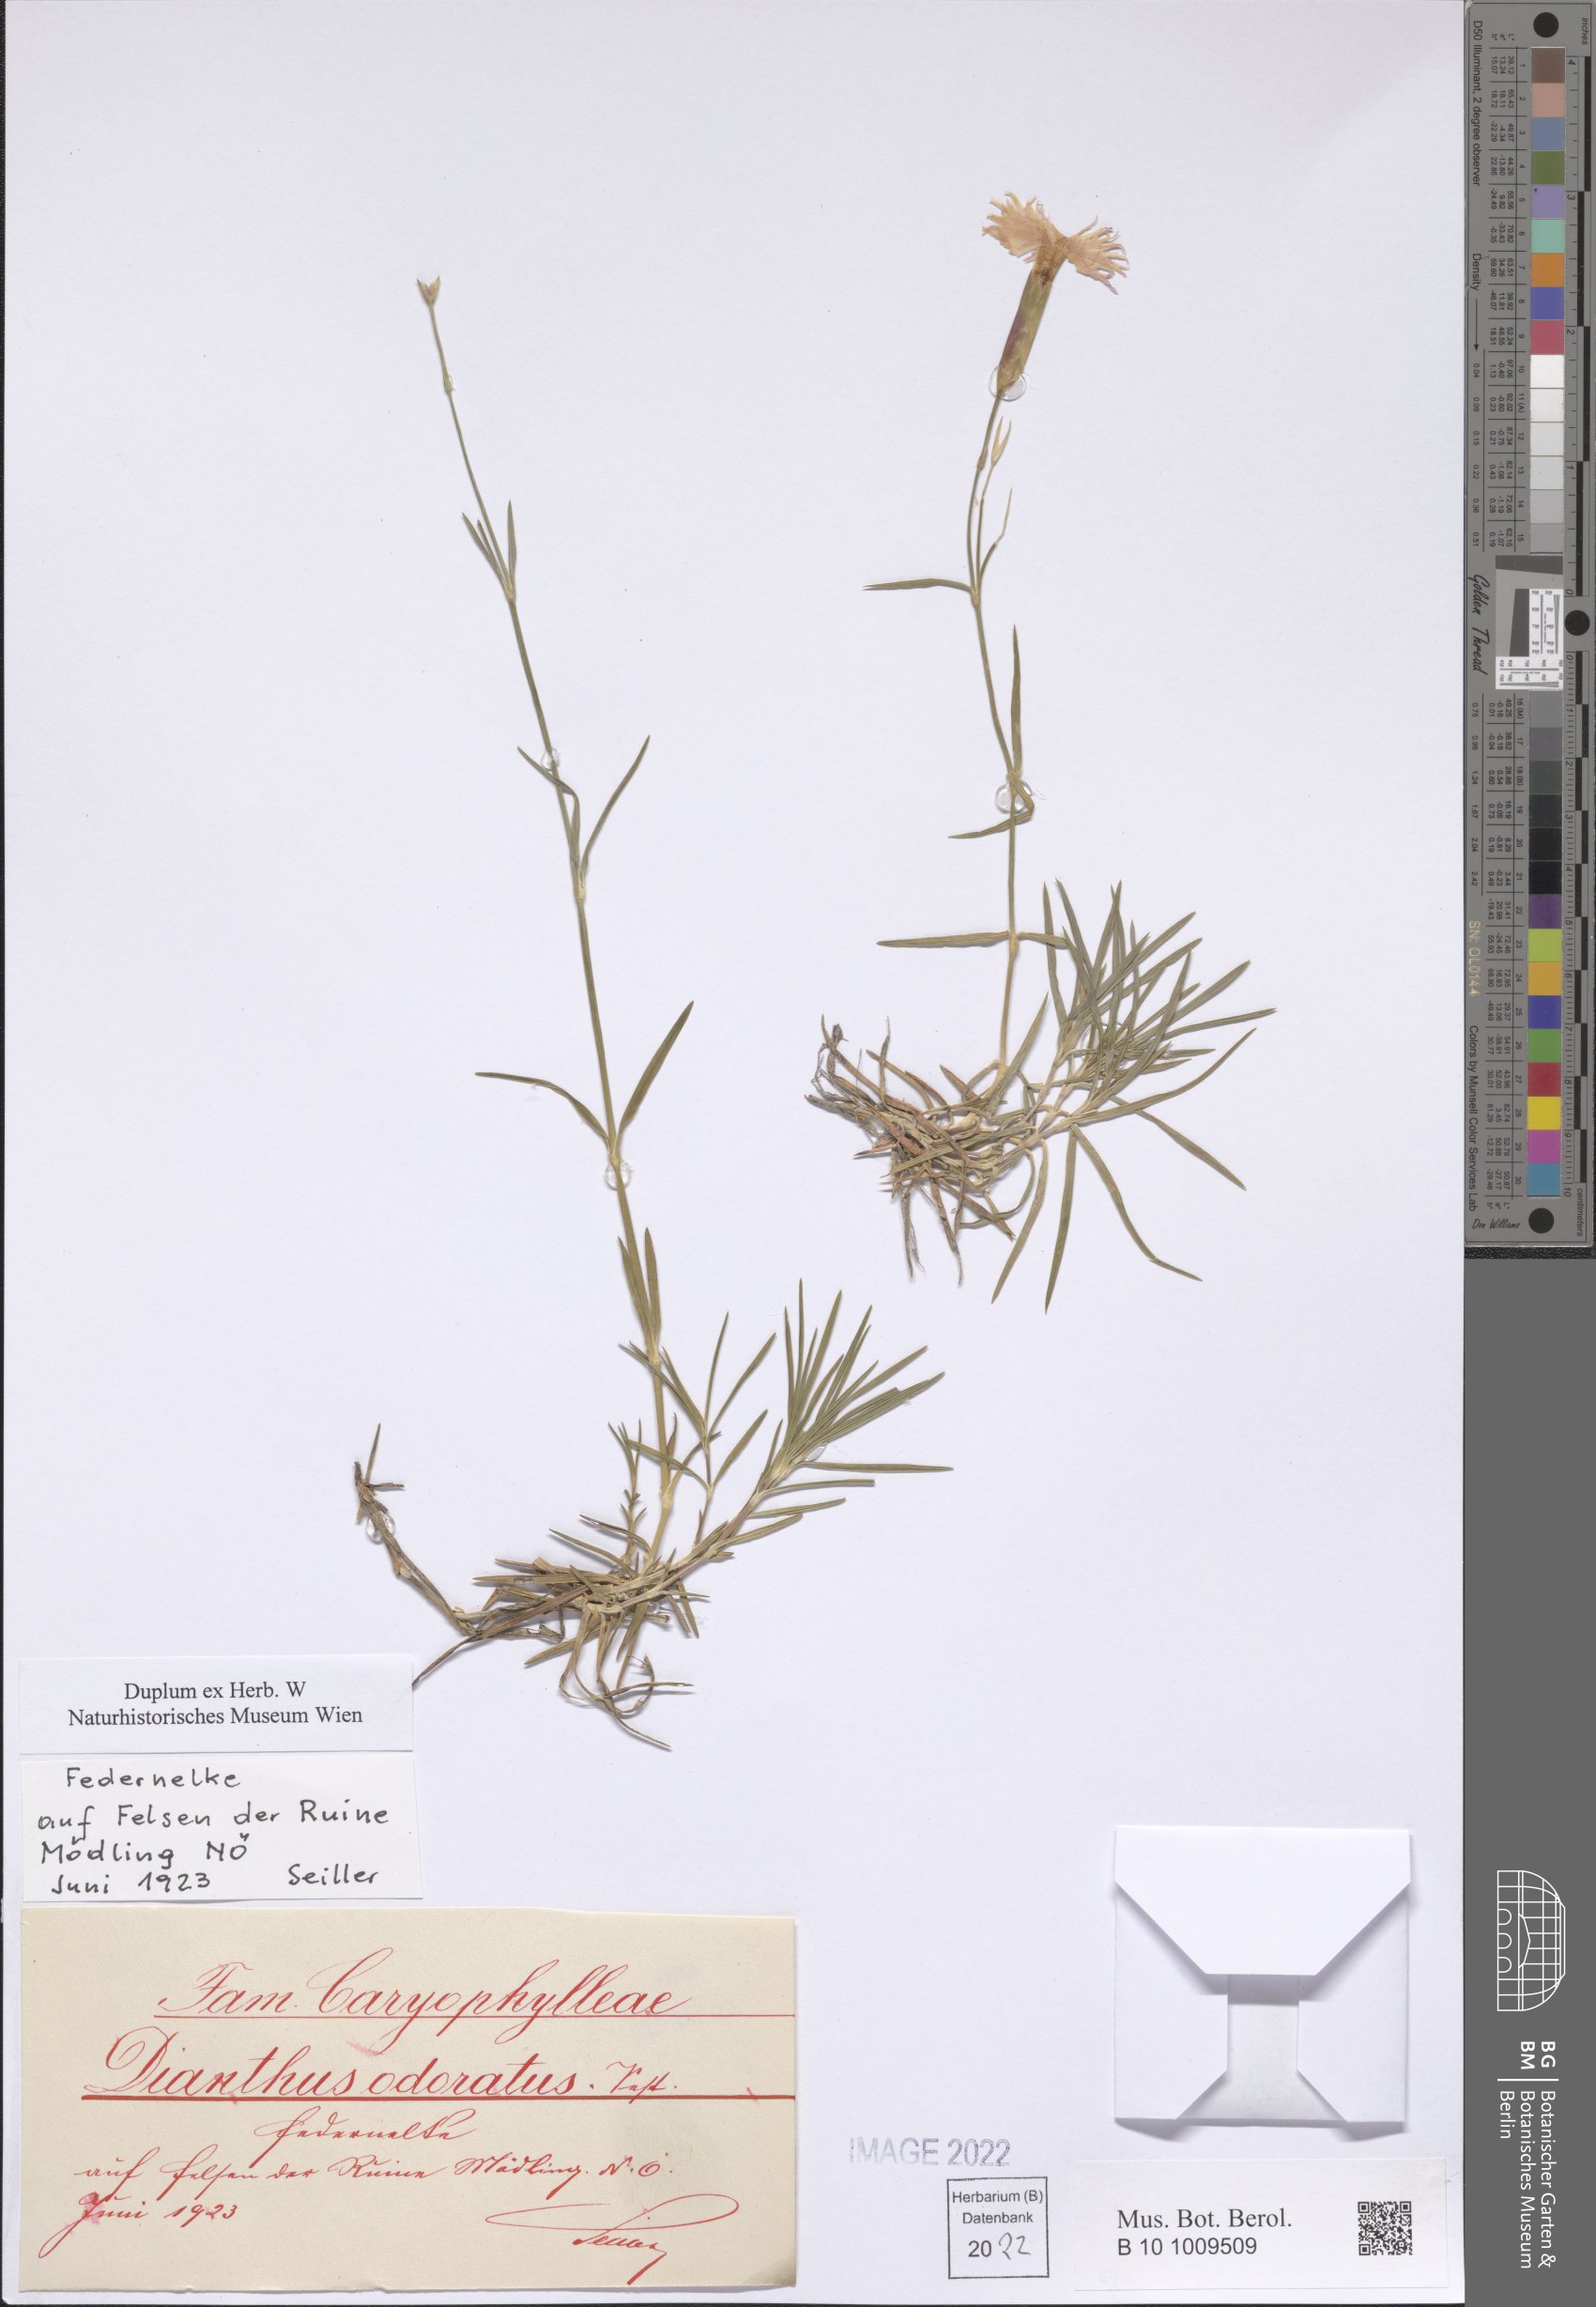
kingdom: Plantae
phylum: Tracheophyta
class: Magnoliopsida
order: Caryophyllales
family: Caryophyllaceae
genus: Dianthus
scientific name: Dianthus plumarius
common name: Pink
